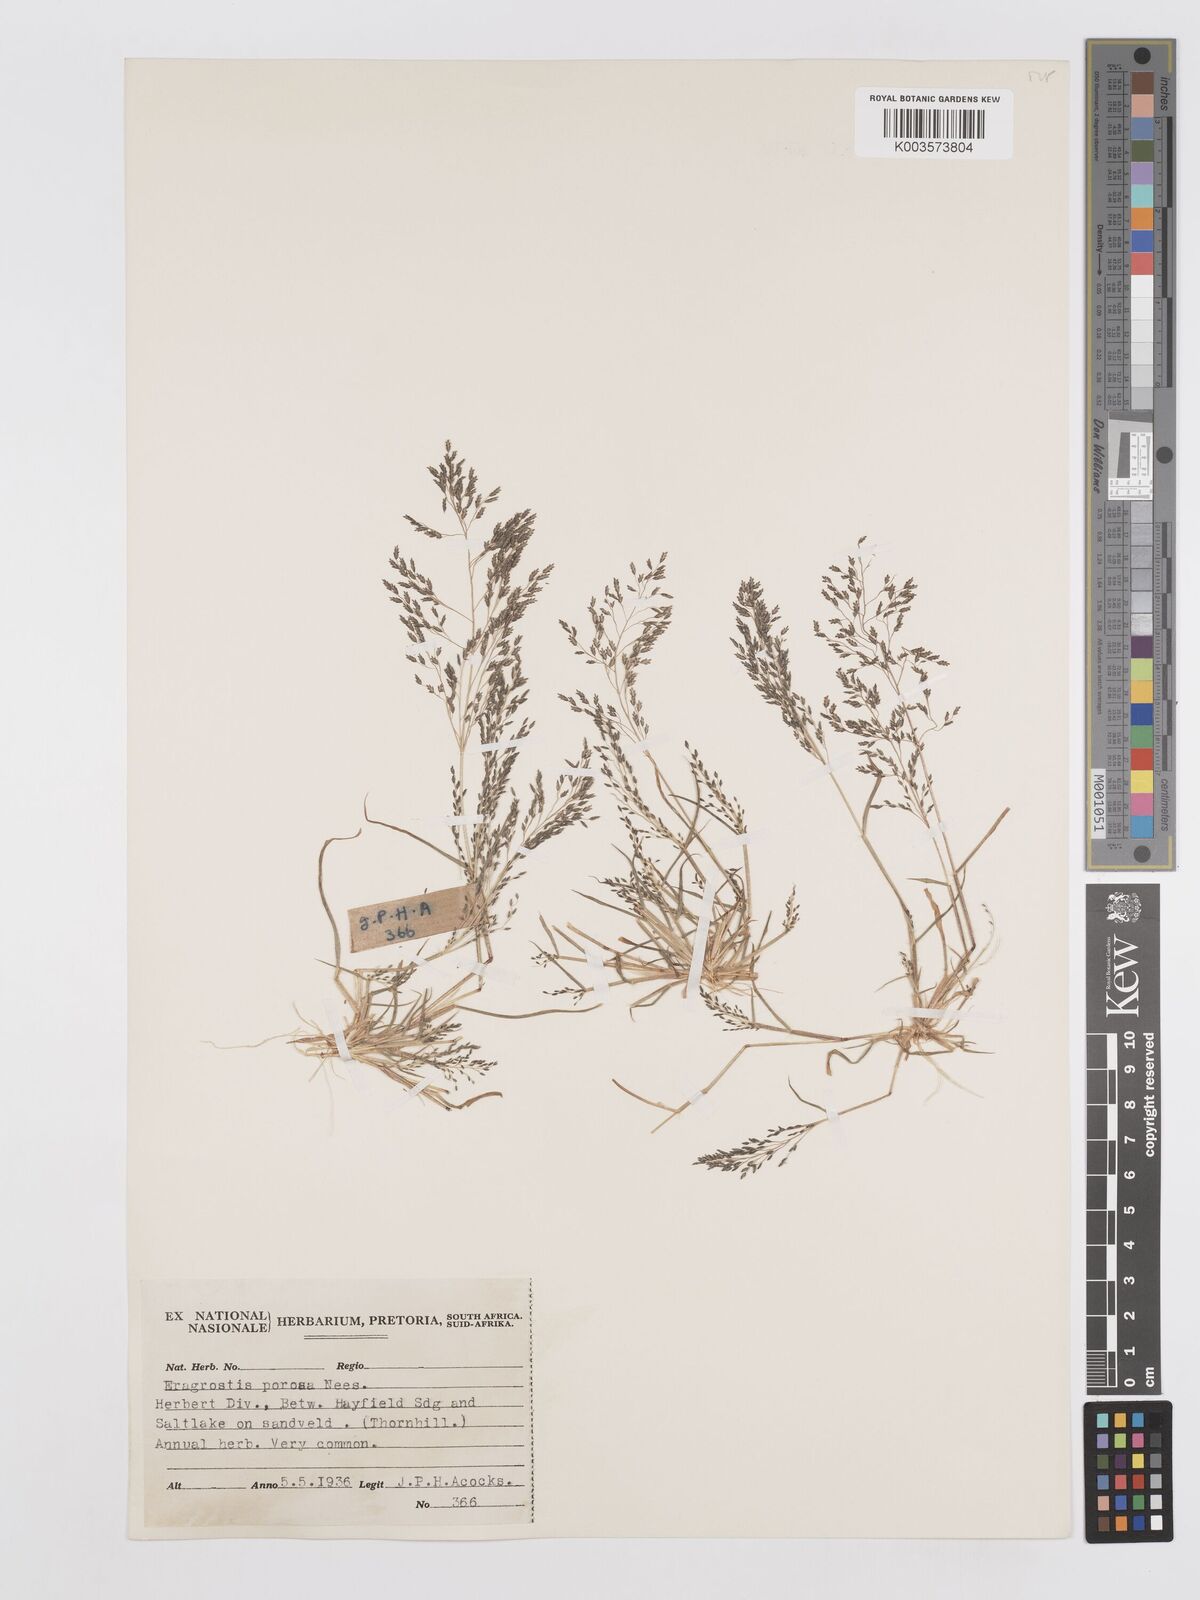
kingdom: Plantae
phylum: Tracheophyta
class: Liliopsida
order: Poales
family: Poaceae
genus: Eragrostis
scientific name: Eragrostis porosa
